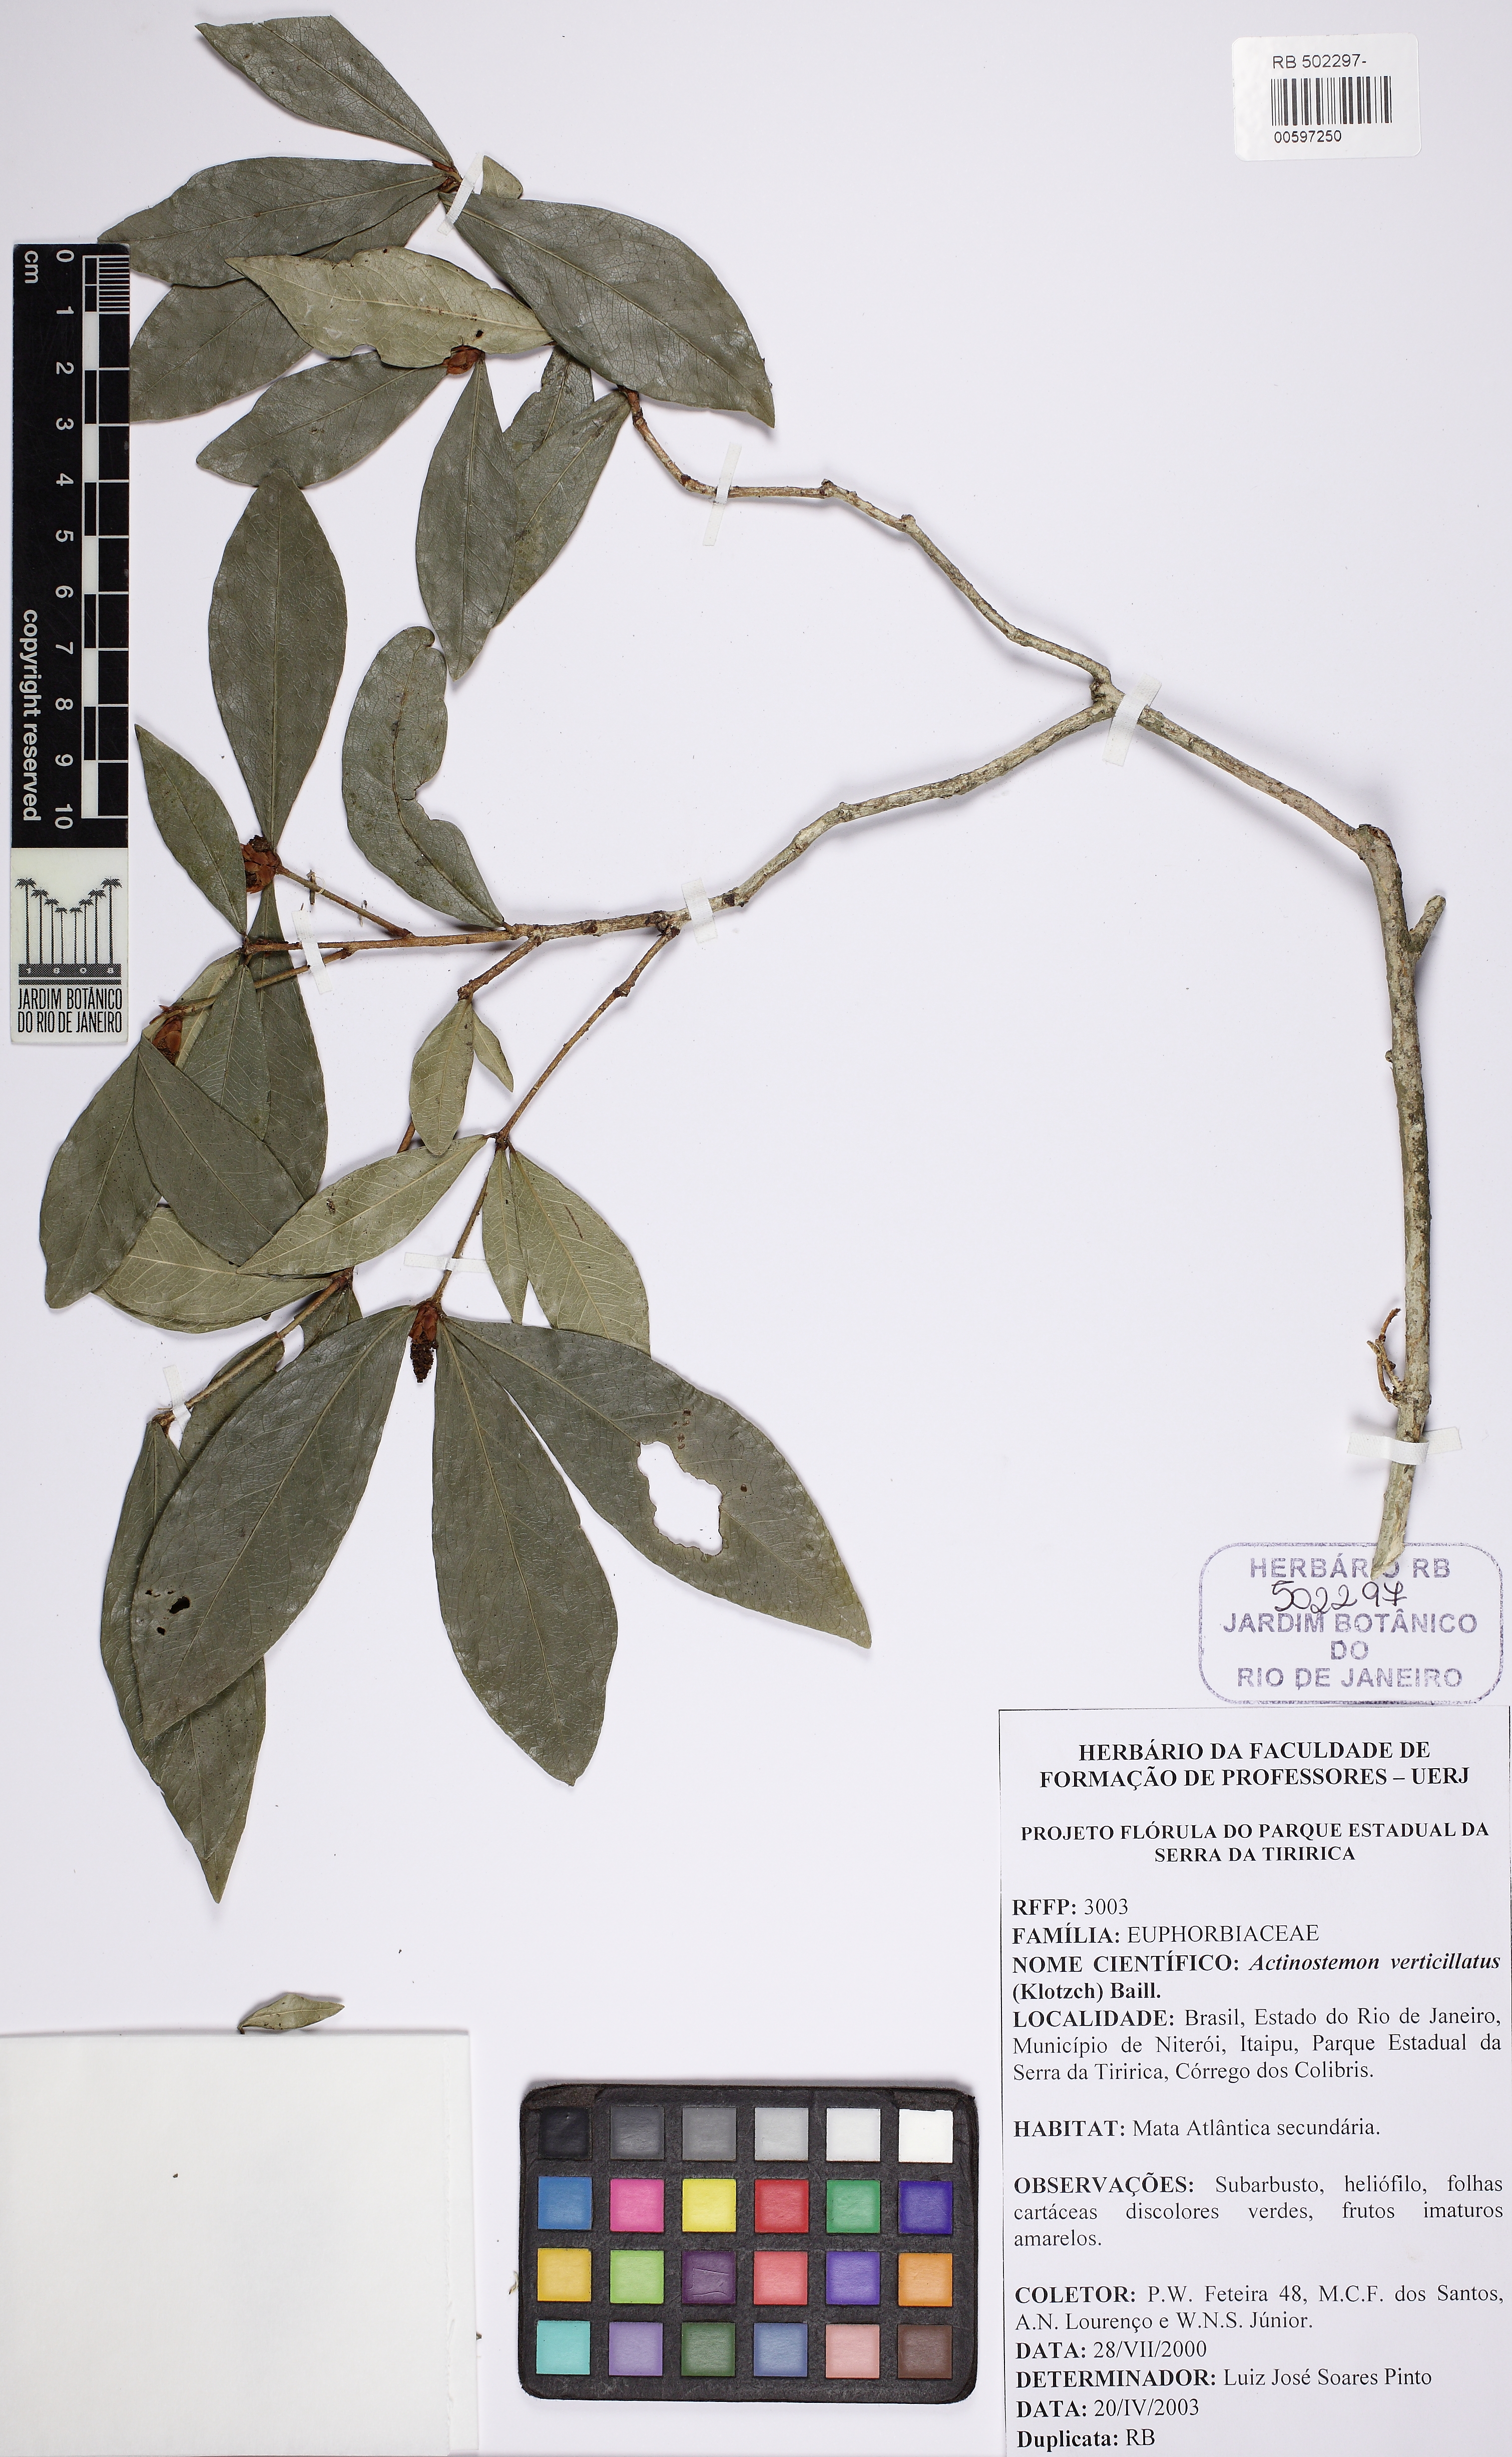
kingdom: Plantae
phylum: Tracheophyta
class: Magnoliopsida
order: Malpighiales
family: Euphorbiaceae
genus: Actinostemon
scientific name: Actinostemon verticillatus
